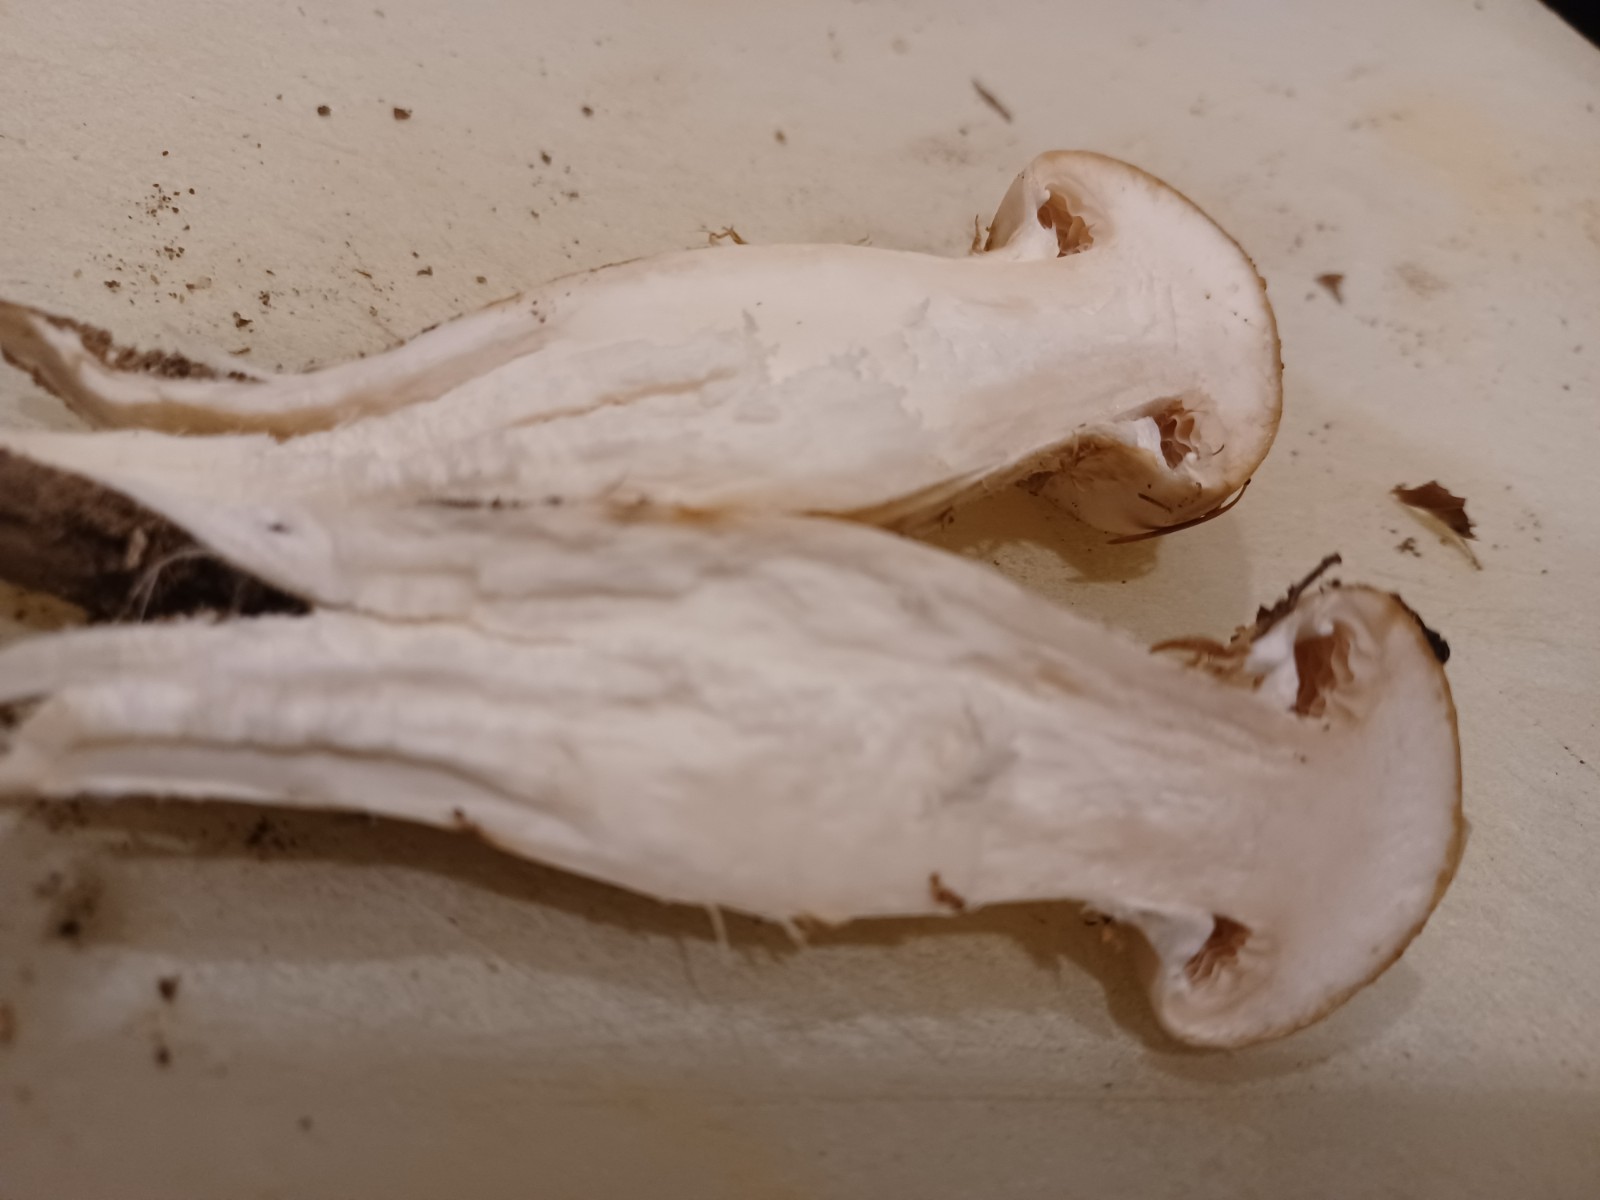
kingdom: Fungi
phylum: Basidiomycota
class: Agaricomycetes
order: Agaricales
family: Hymenogastraceae
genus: Hebeloma
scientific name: Hebeloma radicosum
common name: pælerods-tåreblad
